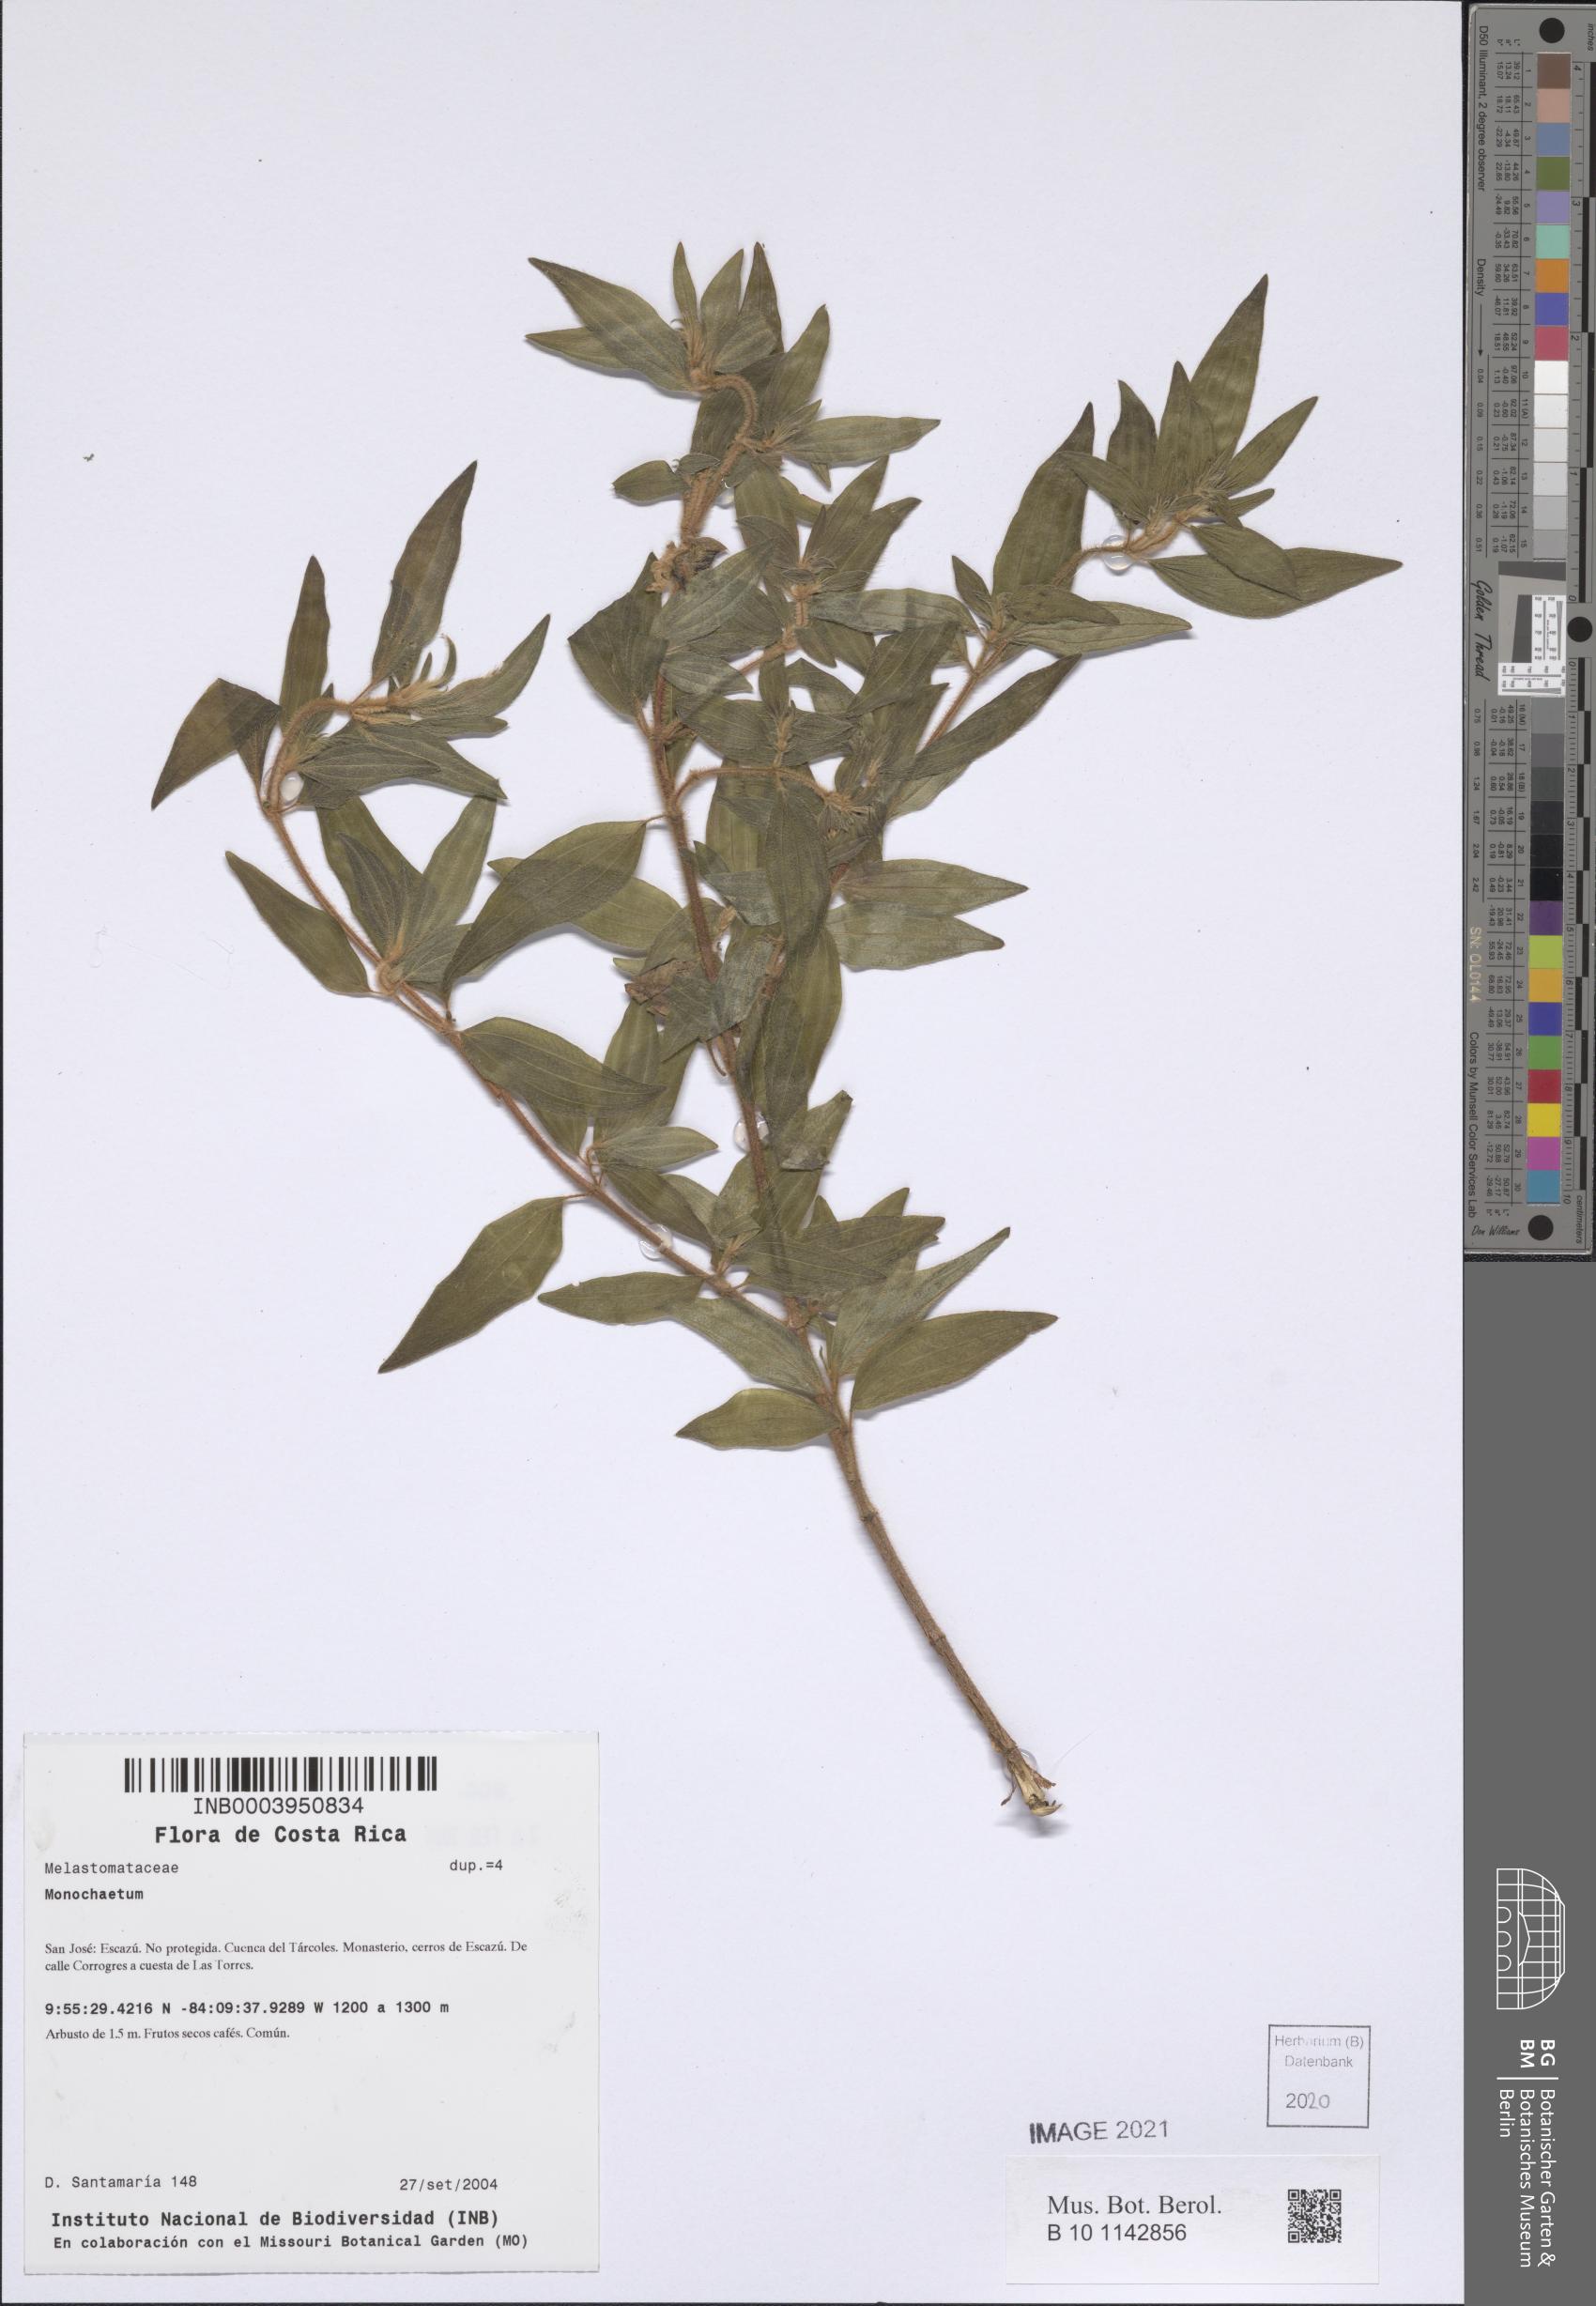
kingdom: Plantae
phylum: Tracheophyta
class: Magnoliopsida
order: Myrtales
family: Melastomataceae
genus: Monochaetum
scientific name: Monochaetum
